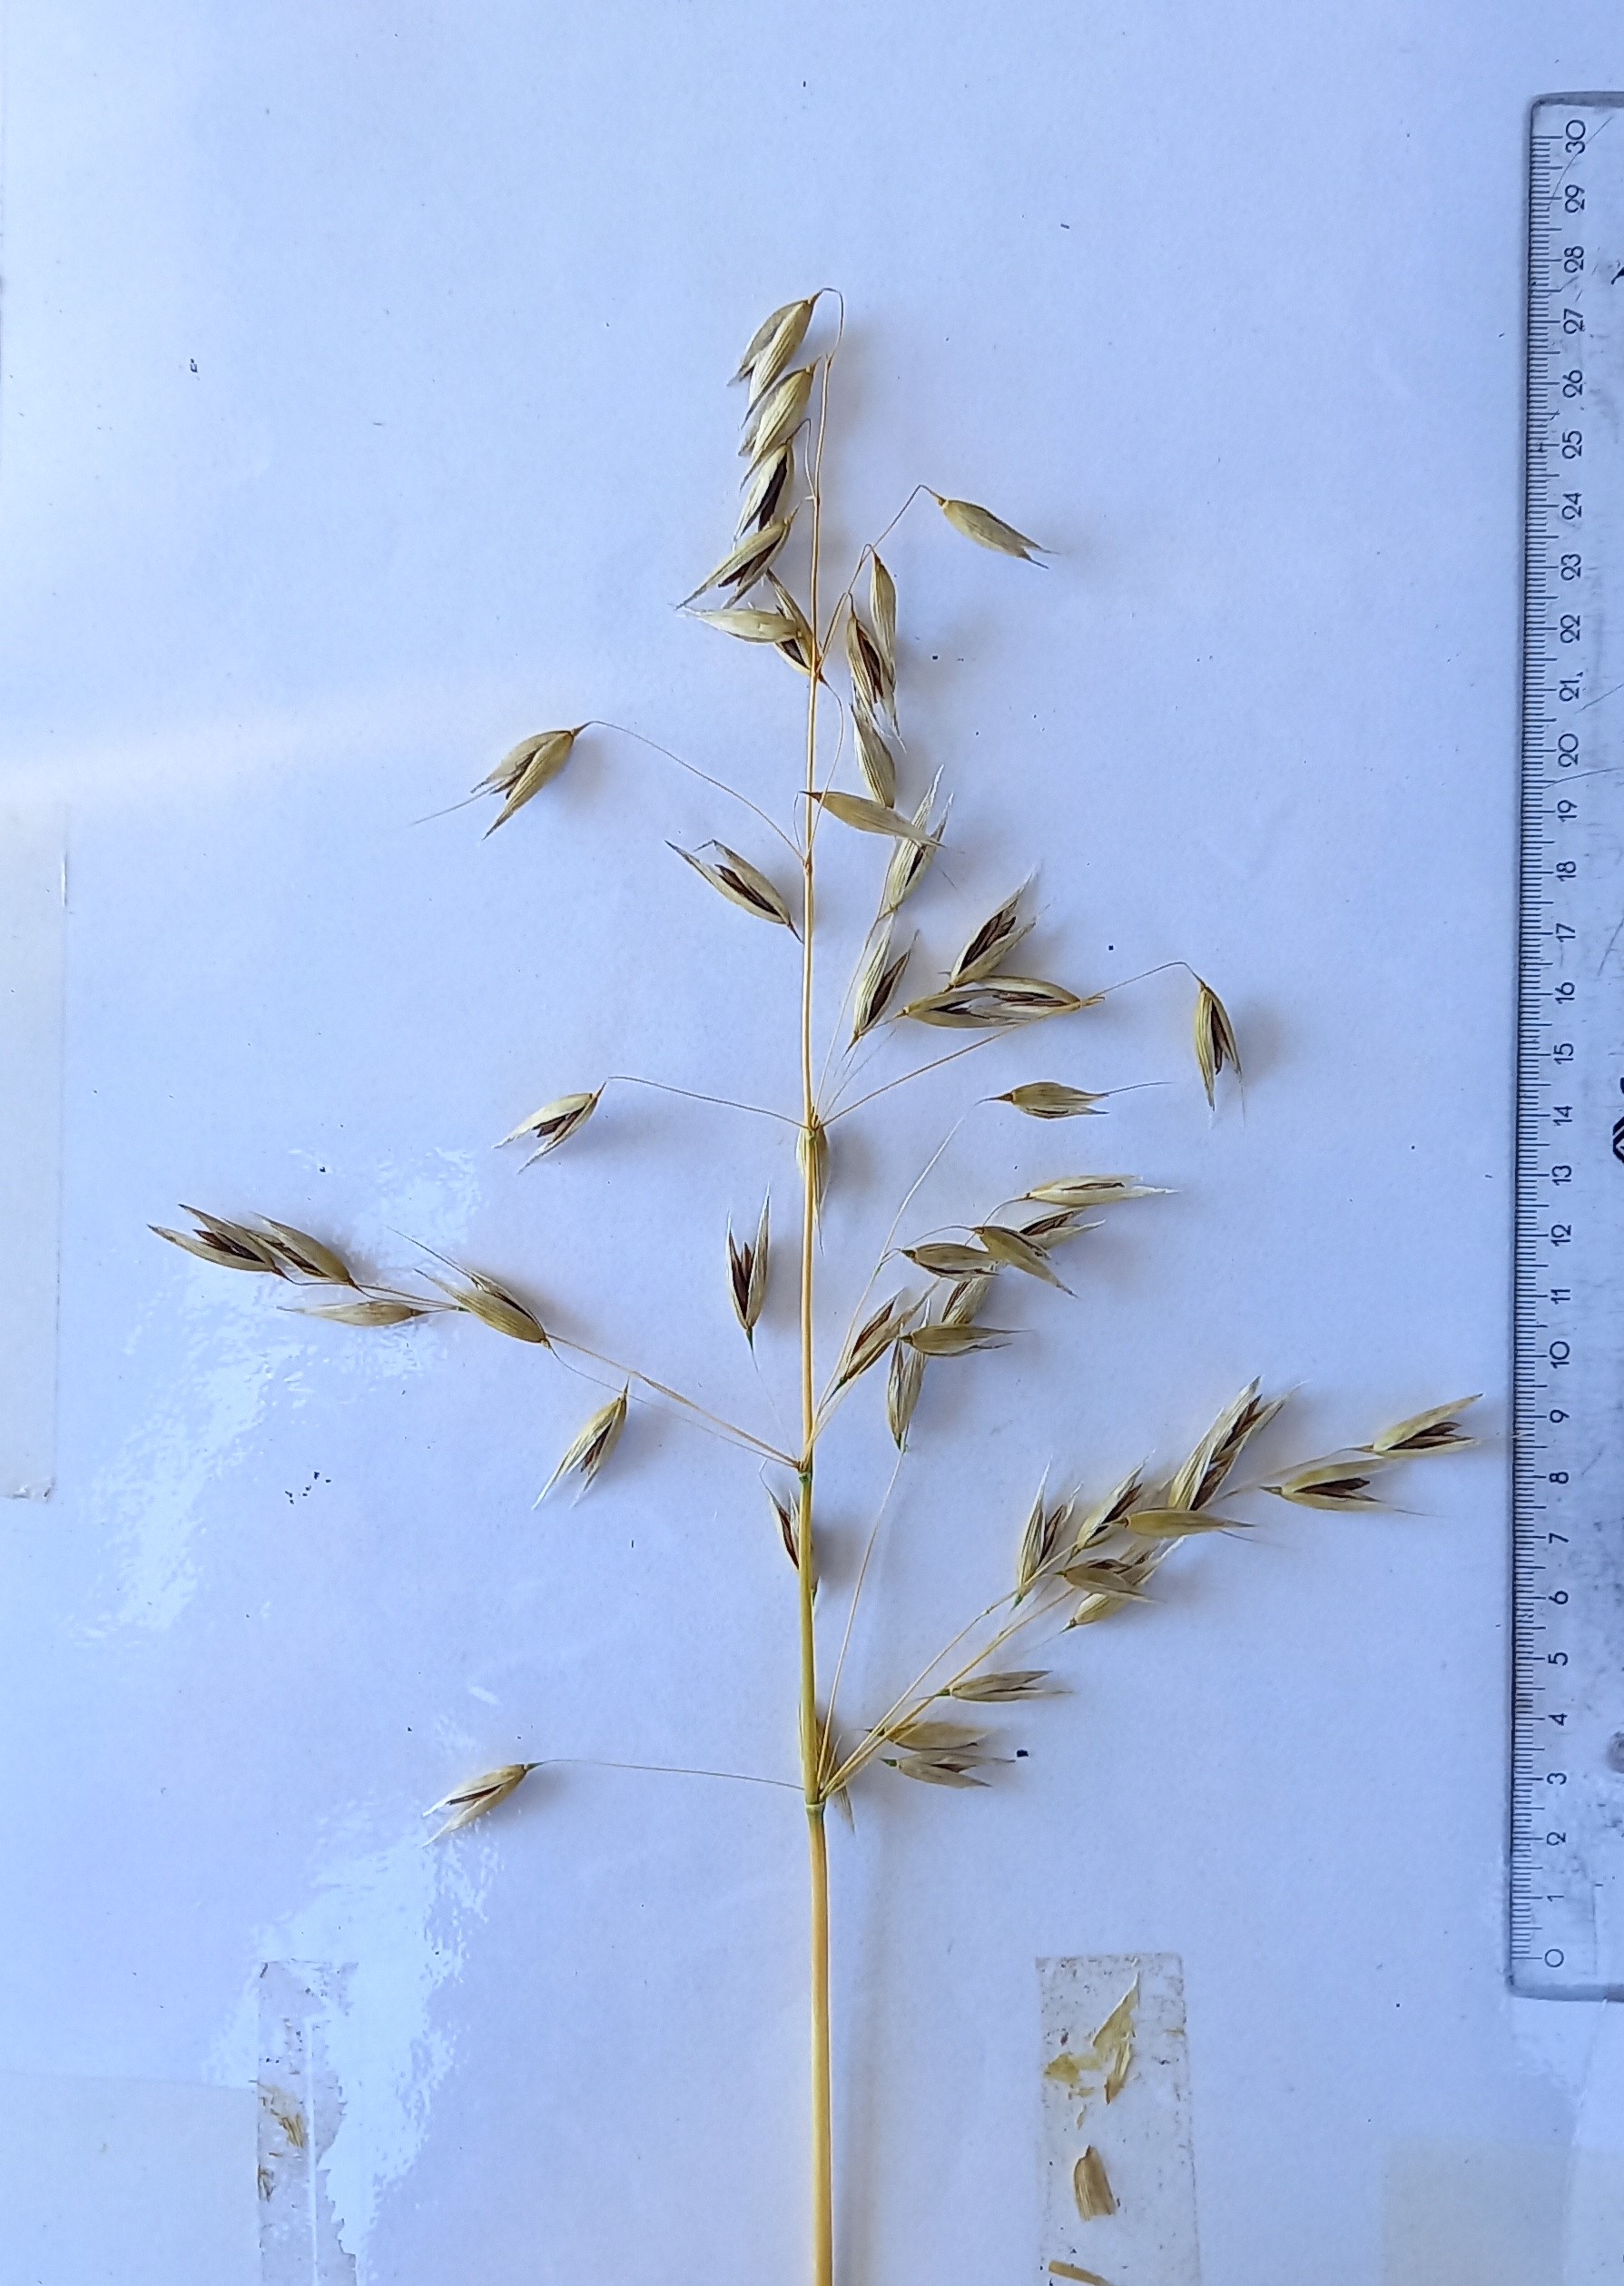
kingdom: Plantae
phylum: Tracheophyta
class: Liliopsida
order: Poales
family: Poaceae
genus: Avena
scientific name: Avena sativa
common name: Oat
